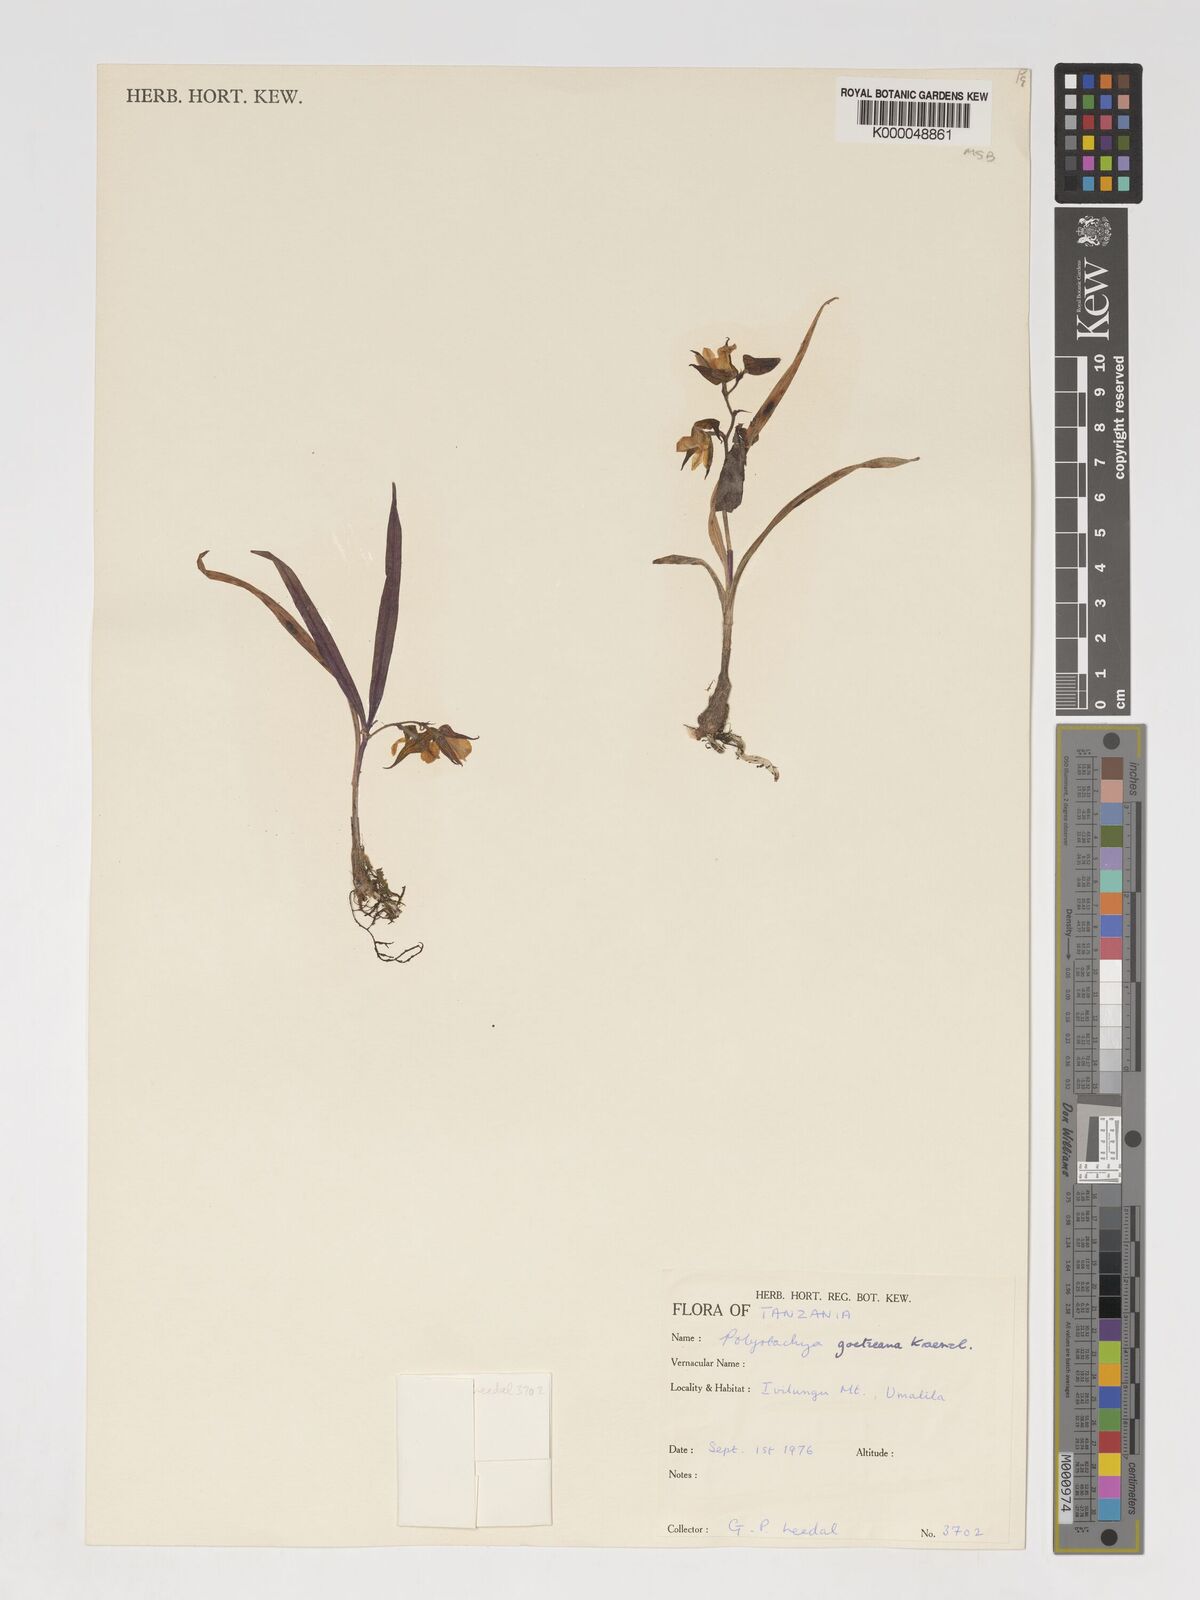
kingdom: Plantae
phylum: Tracheophyta
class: Liliopsida
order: Asparagales
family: Orchidaceae
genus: Polystachya
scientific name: Polystachya goetzeana
